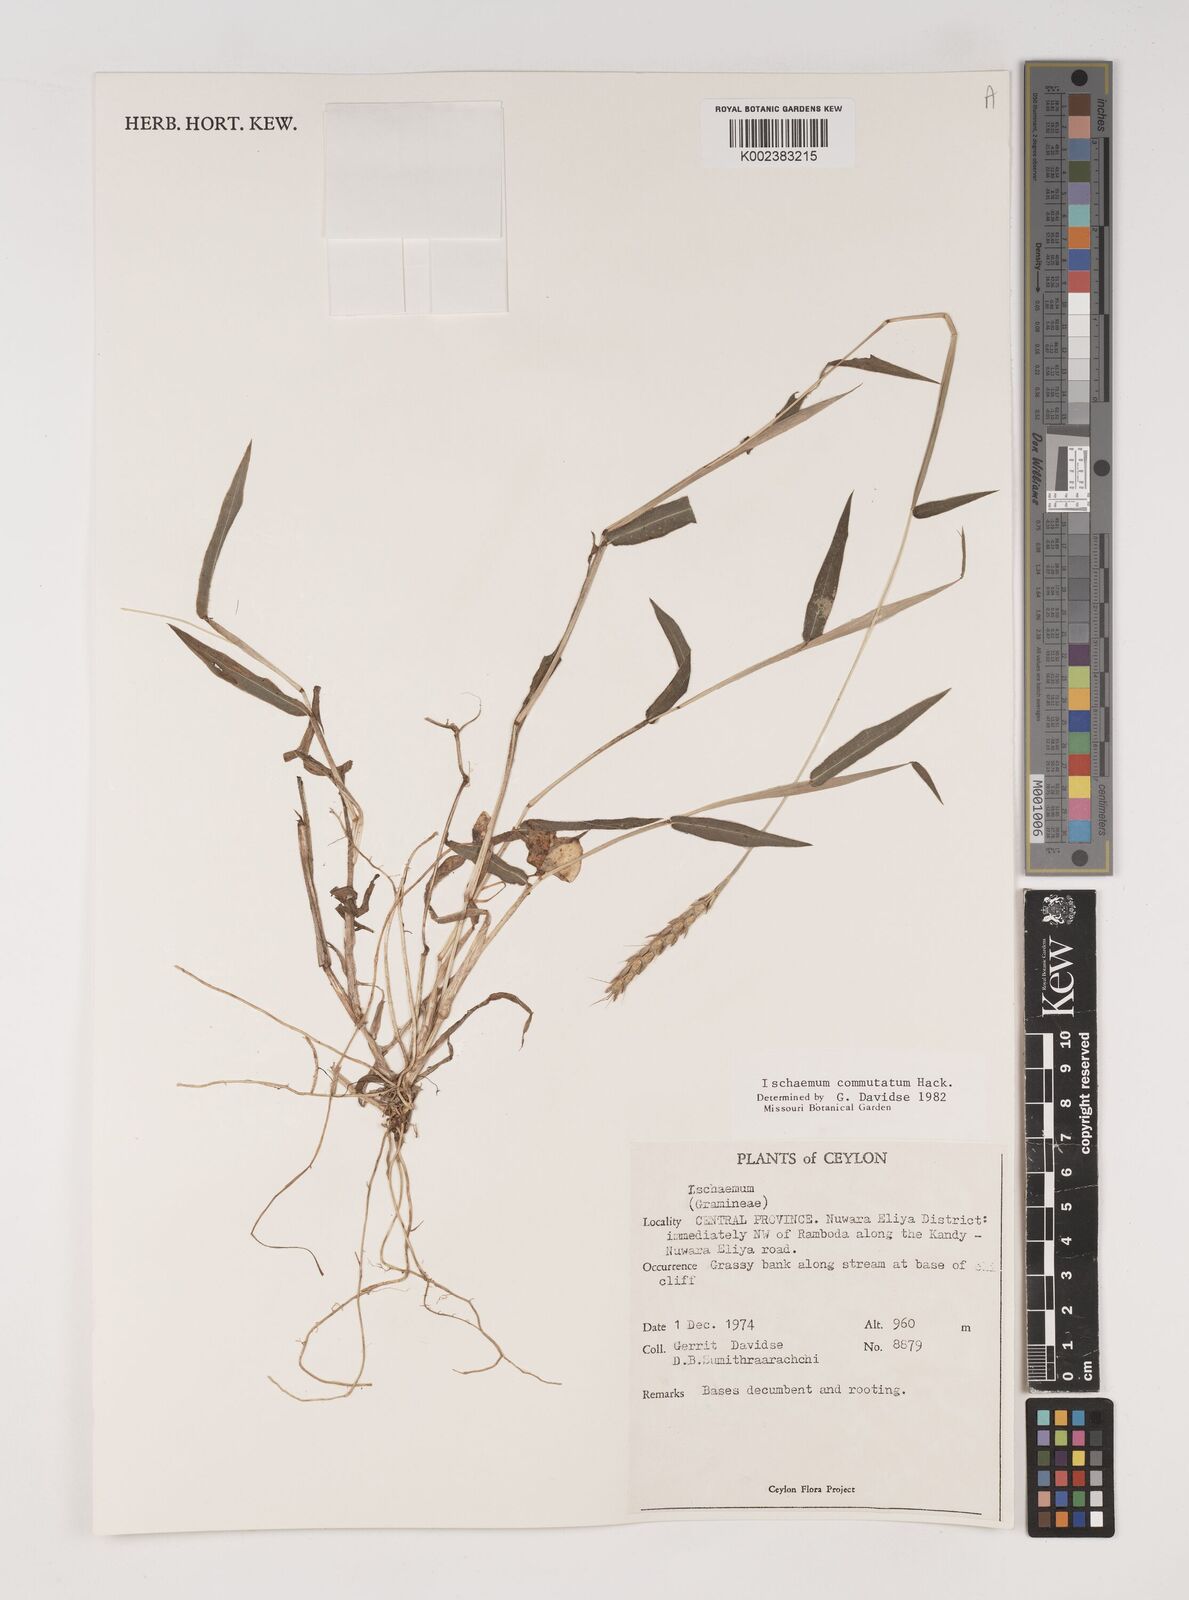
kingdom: Plantae
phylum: Tracheophyta
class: Liliopsida
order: Poales
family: Poaceae
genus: Ischaemum
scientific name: Ischaemum commutatum
